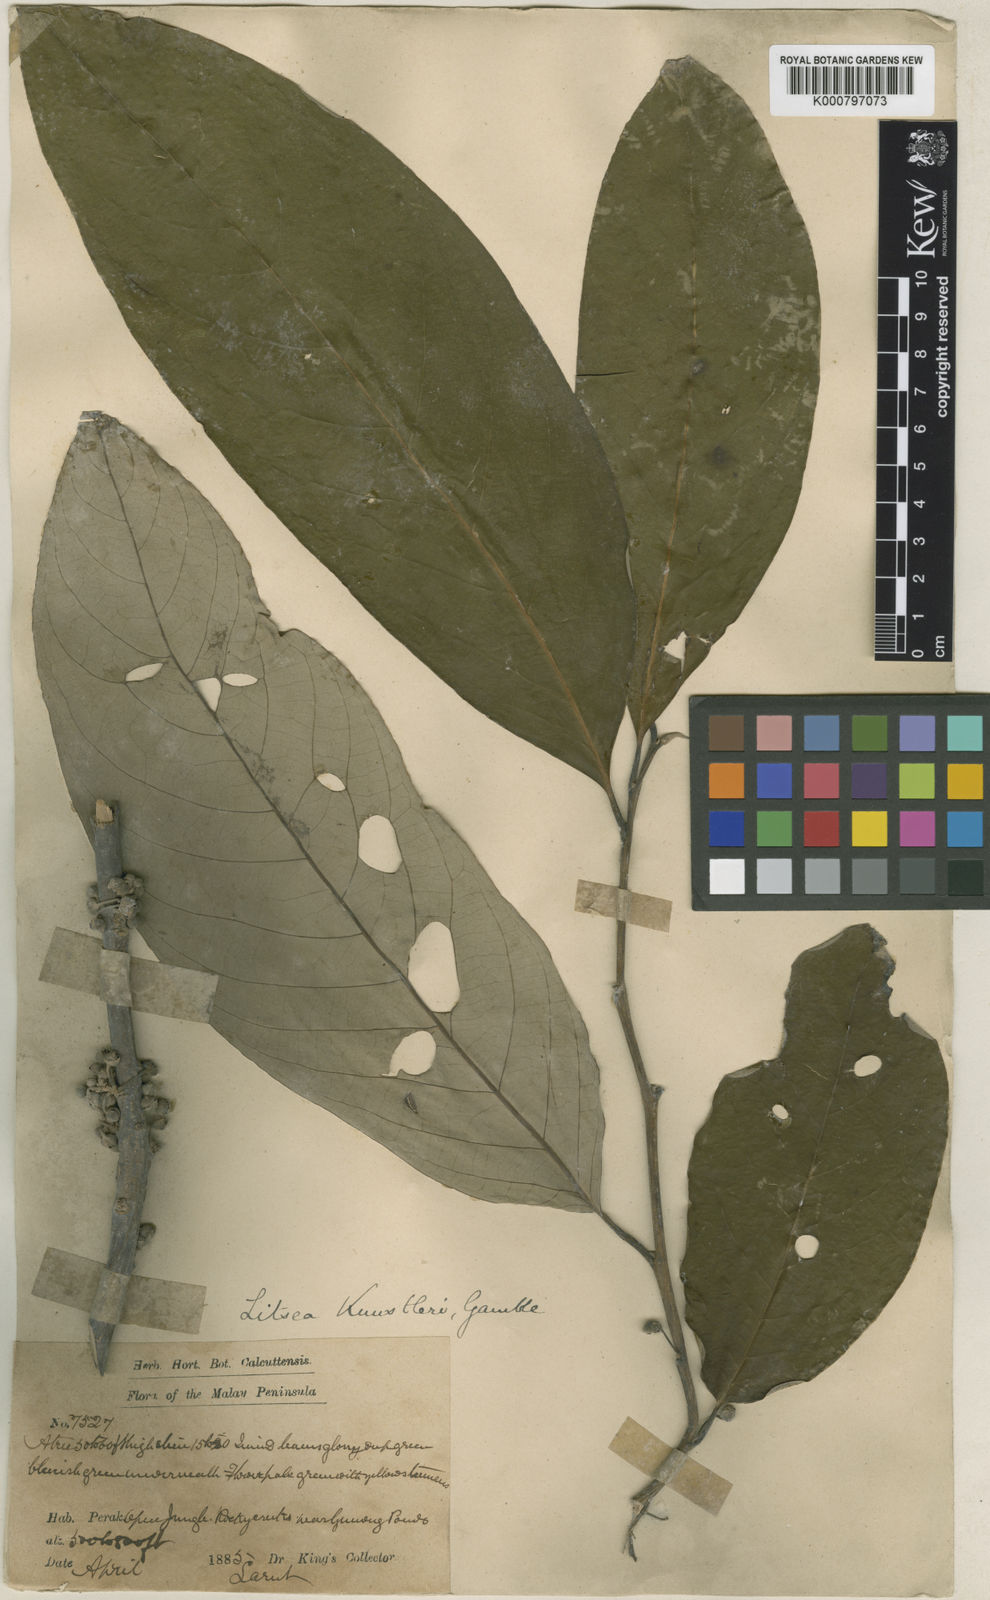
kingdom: Plantae
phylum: Tracheophyta
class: Magnoliopsida
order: Laurales
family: Lauraceae
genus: Litsea
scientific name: Litsea accedens
